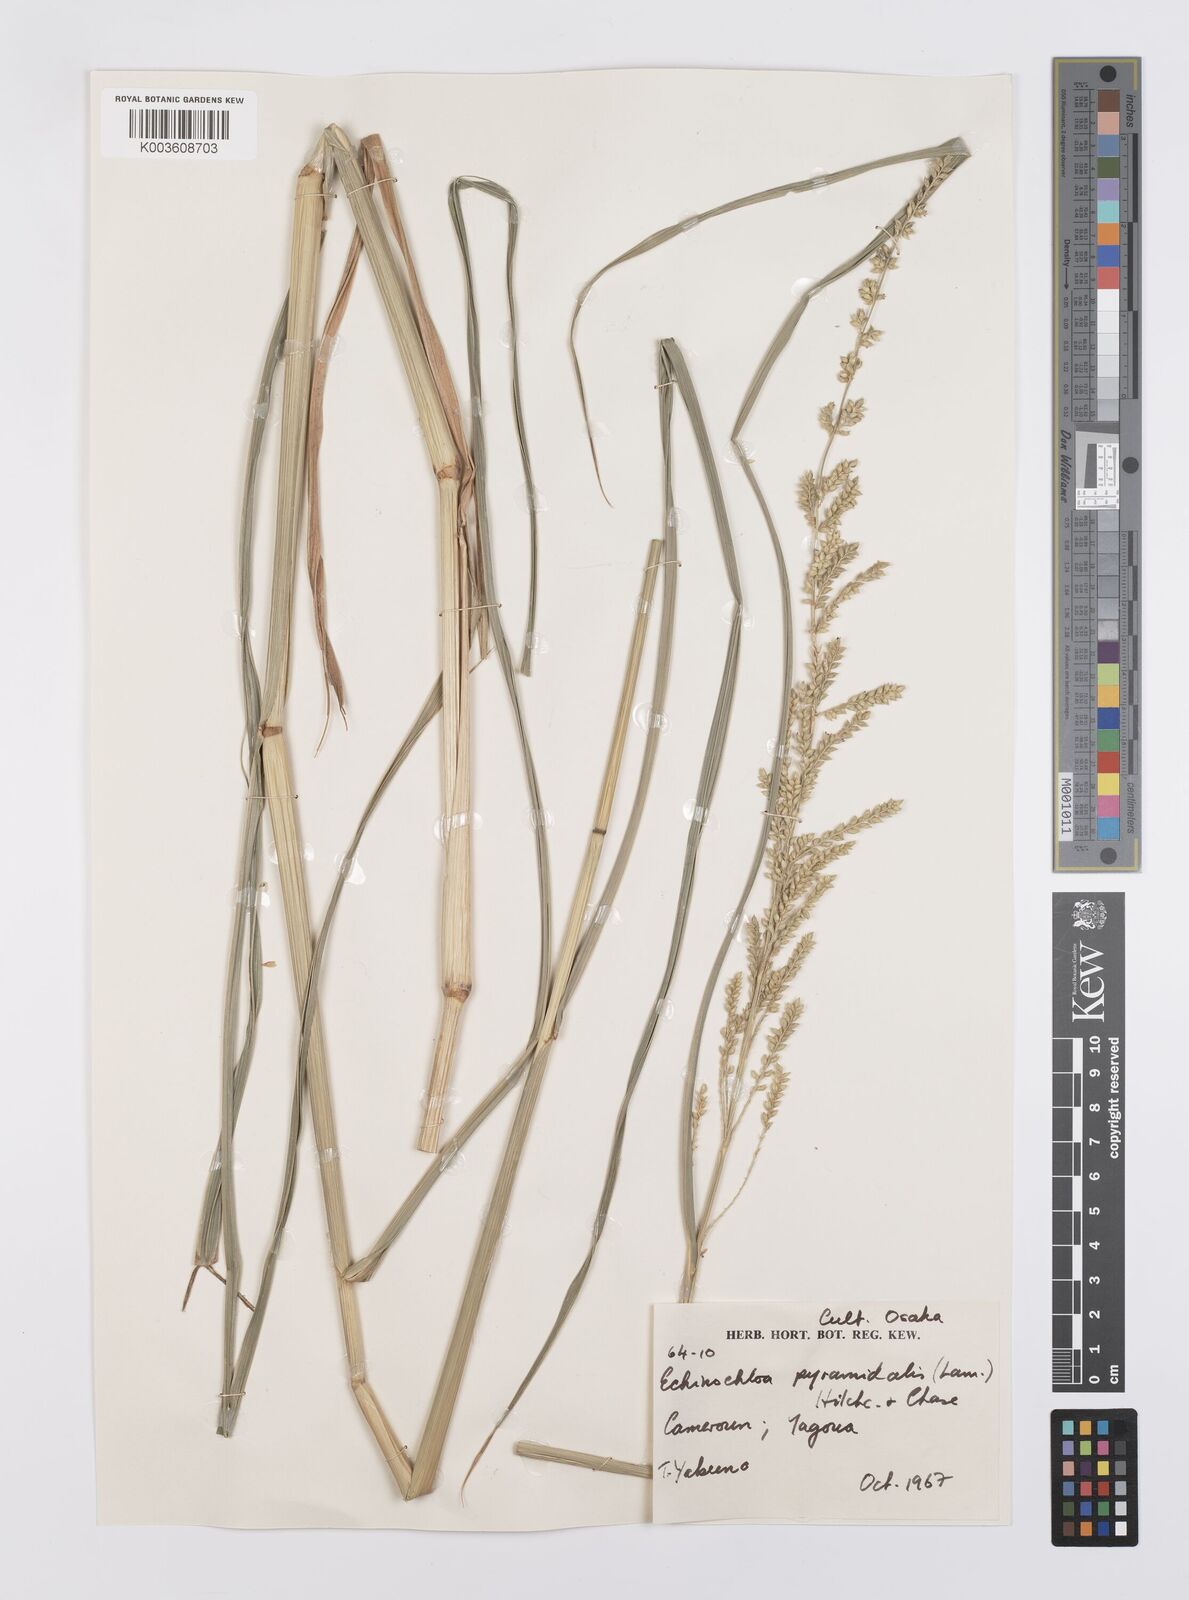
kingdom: Plantae
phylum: Tracheophyta
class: Liliopsida
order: Poales
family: Poaceae
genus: Echinochloa
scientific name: Echinochloa pyramidalis
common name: Antelope grass
